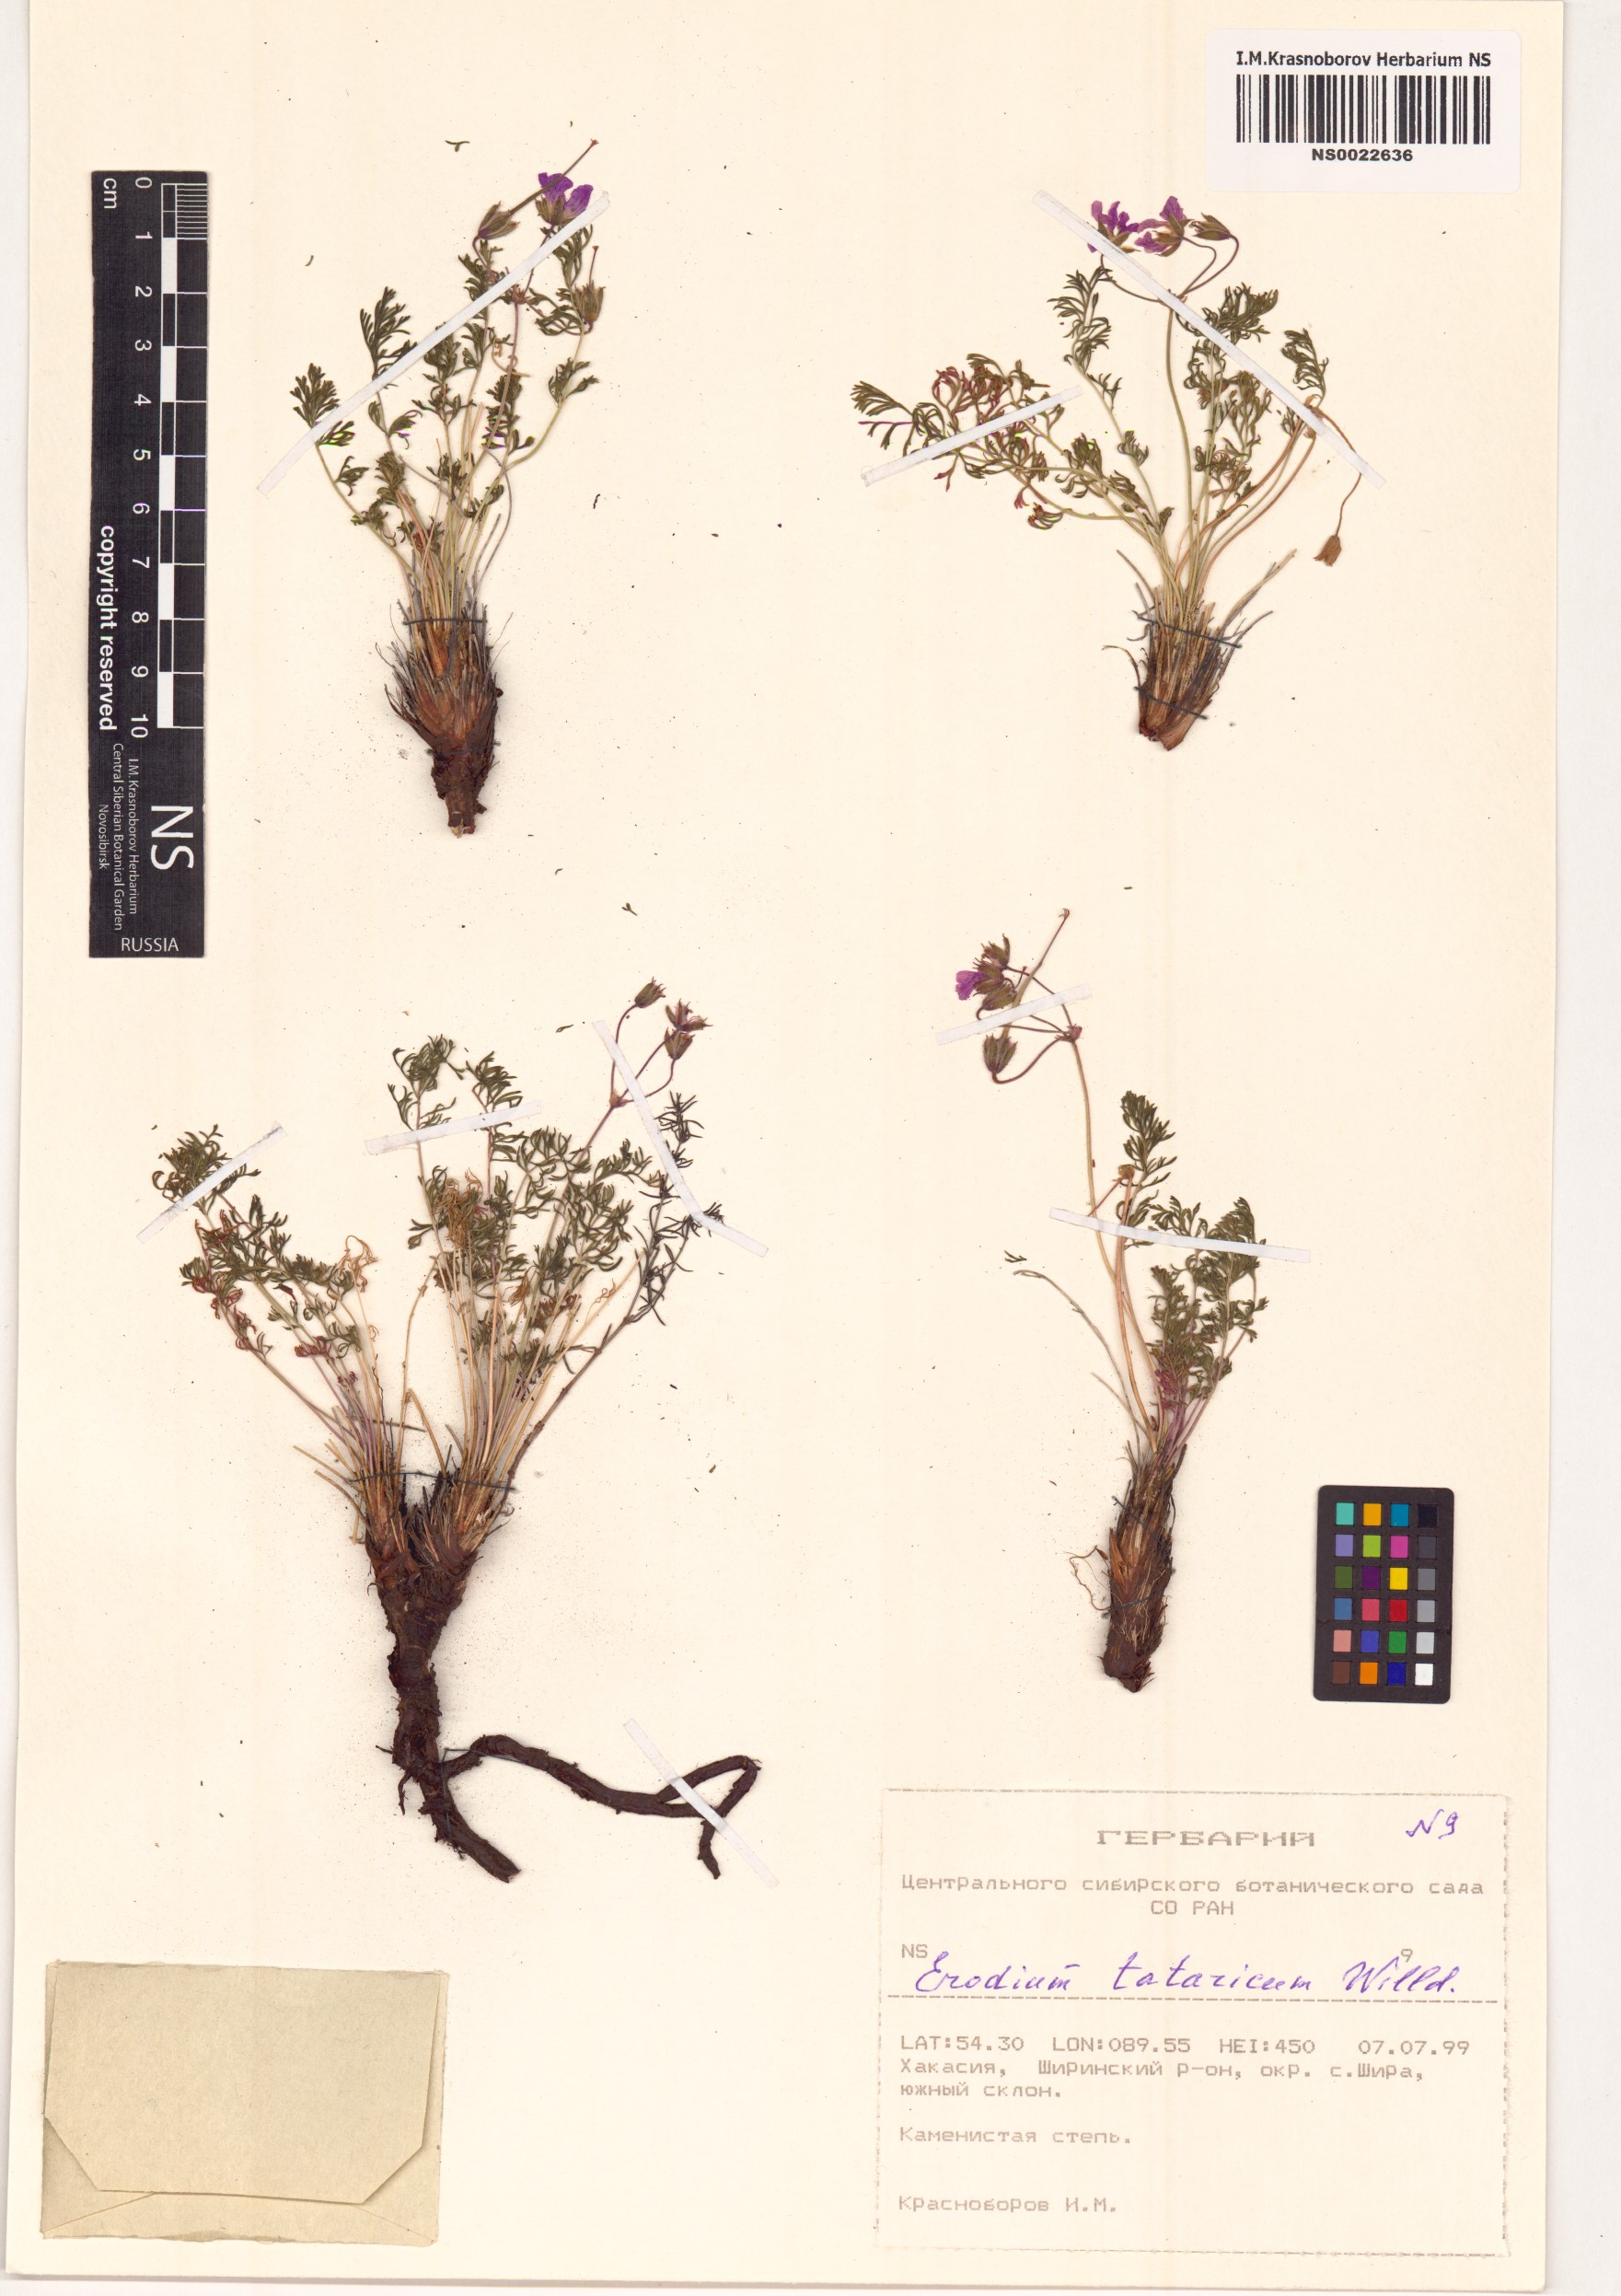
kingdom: Plantae
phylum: Tracheophyta
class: Magnoliopsida
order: Geraniales
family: Geraniaceae
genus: Erodium
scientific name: Erodium tataricum
